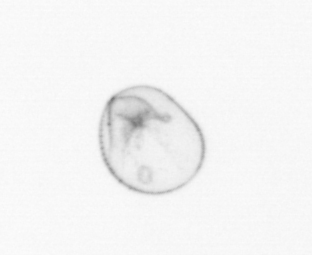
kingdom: Chromista
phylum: Myzozoa
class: Dinophyceae
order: Noctilucales
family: Noctilucaceae
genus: Noctiluca
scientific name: Noctiluca scintillans
